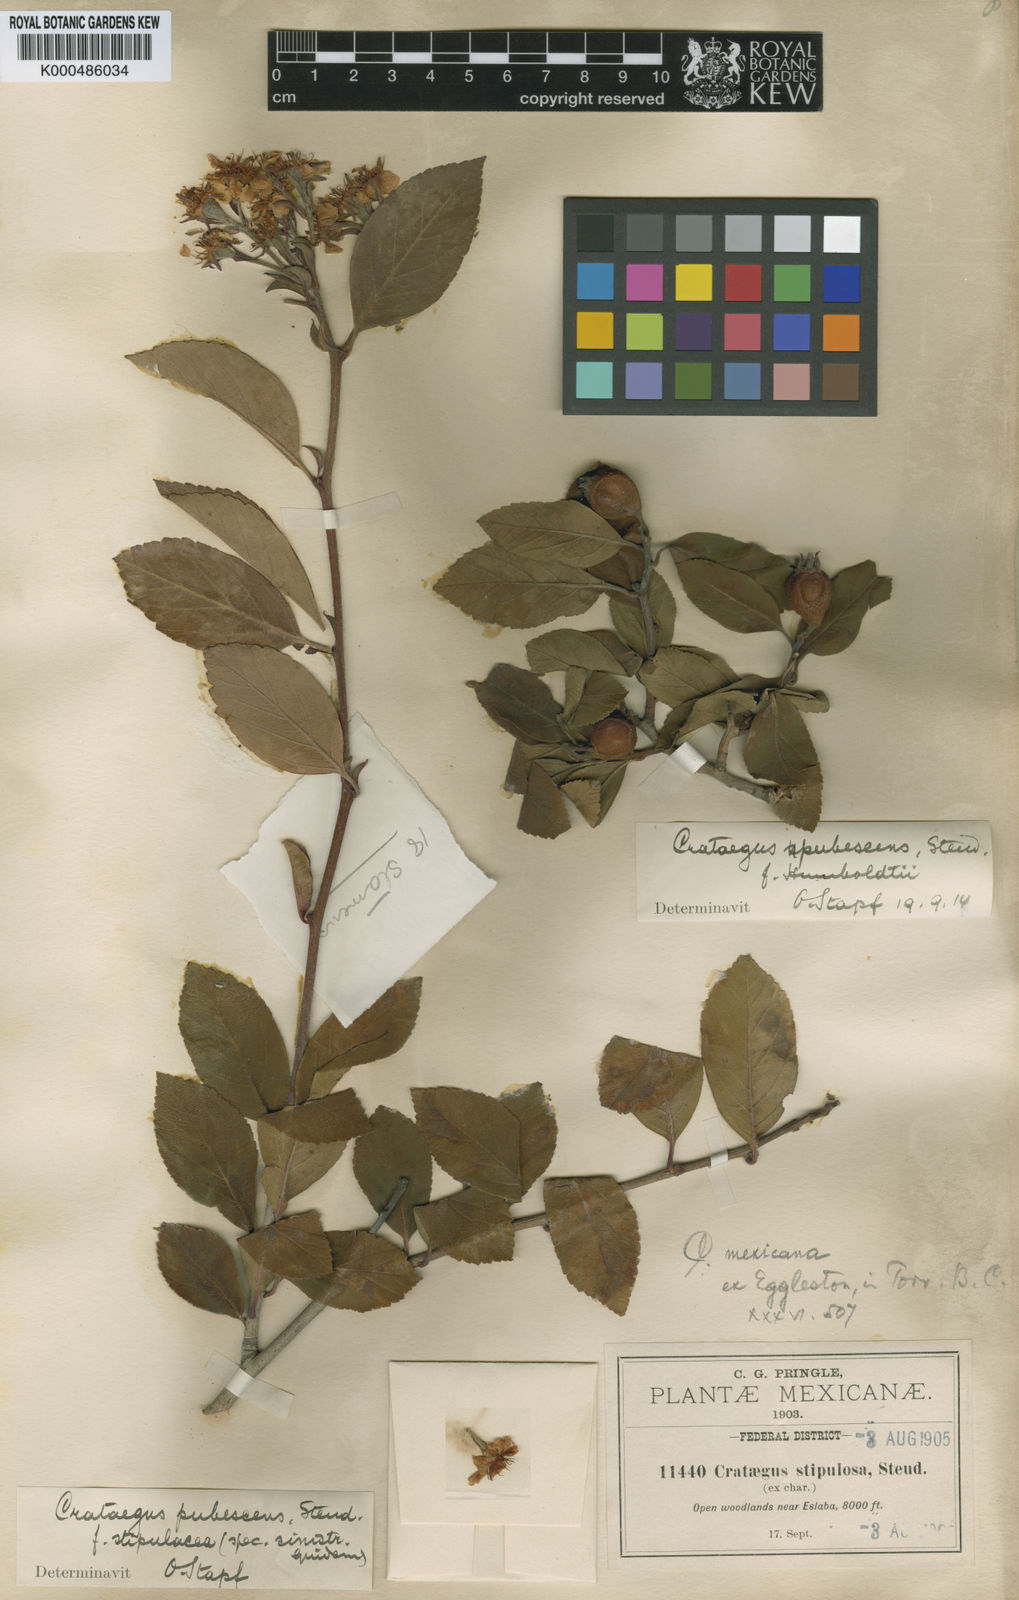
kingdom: Plantae
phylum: Tracheophyta
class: Magnoliopsida
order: Rosales
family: Rosaceae
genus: Crataegus
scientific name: Crataegus gracilior
